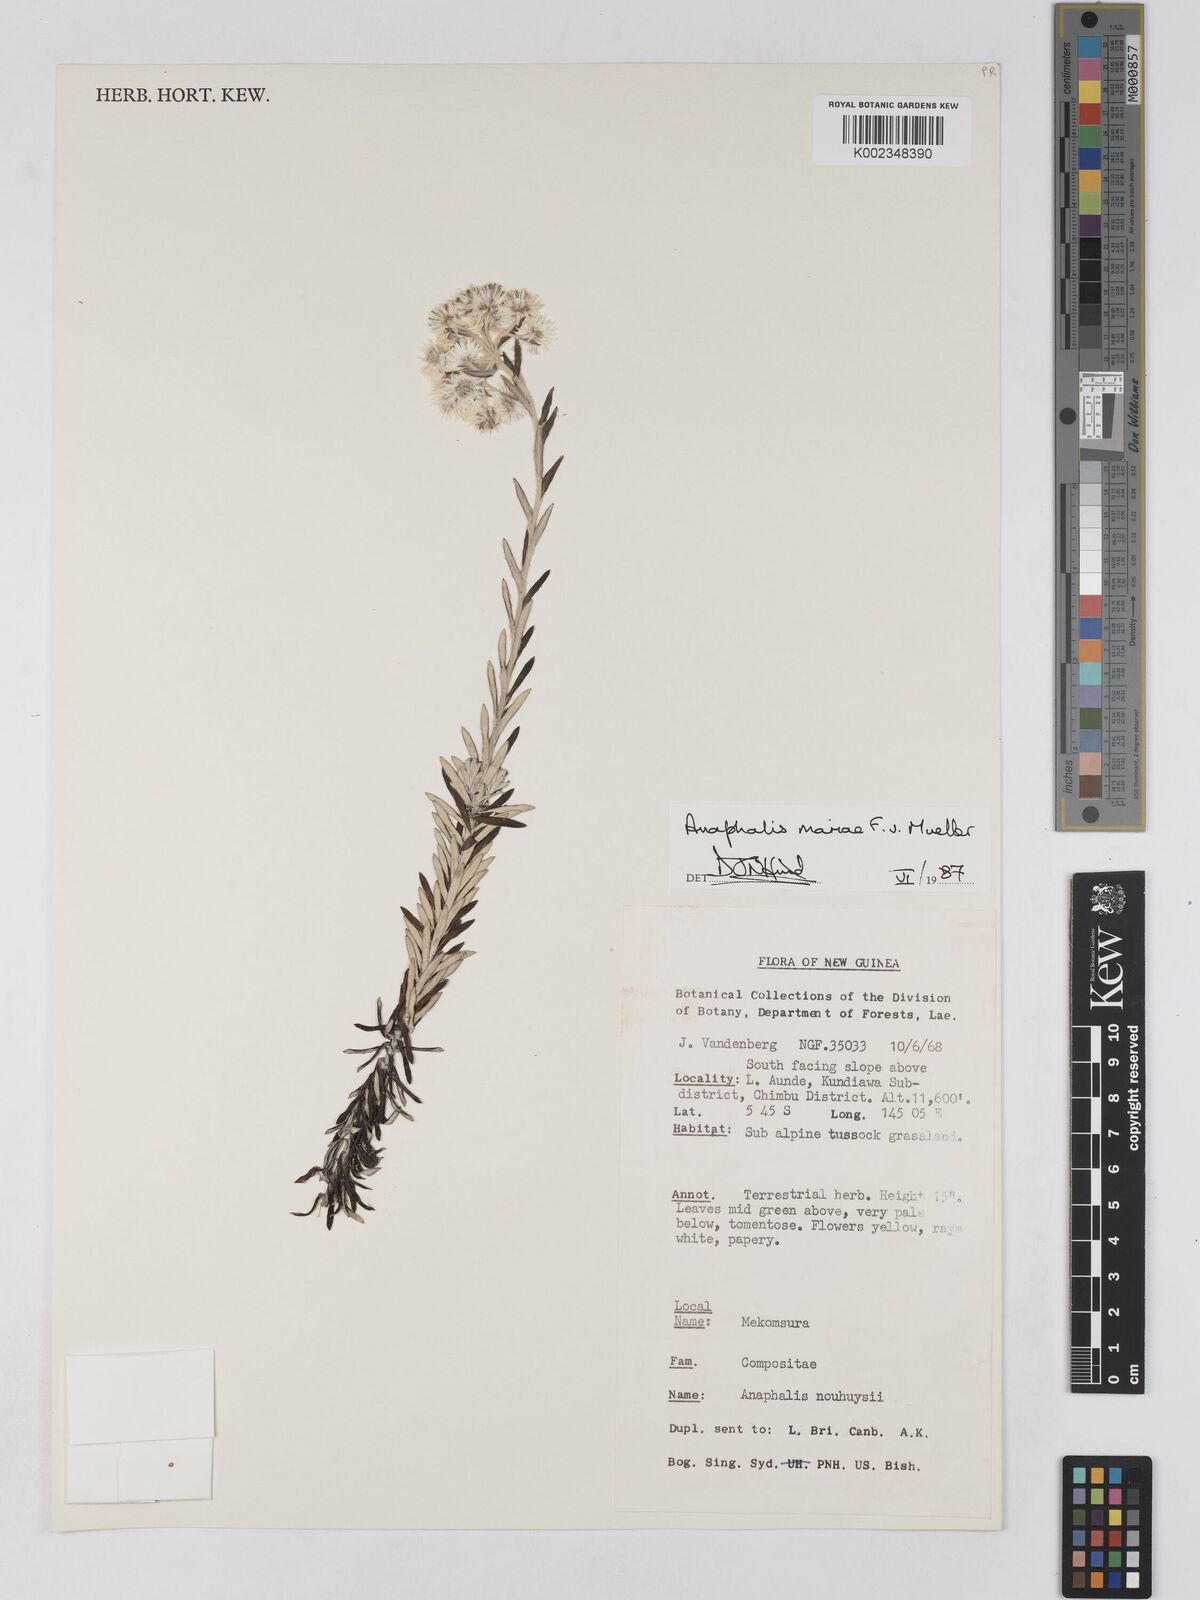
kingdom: Plantae
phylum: Tracheophyta
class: Magnoliopsida
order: Asterales
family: Asteraceae
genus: Anaphalioides
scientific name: Anaphalioides mariae
